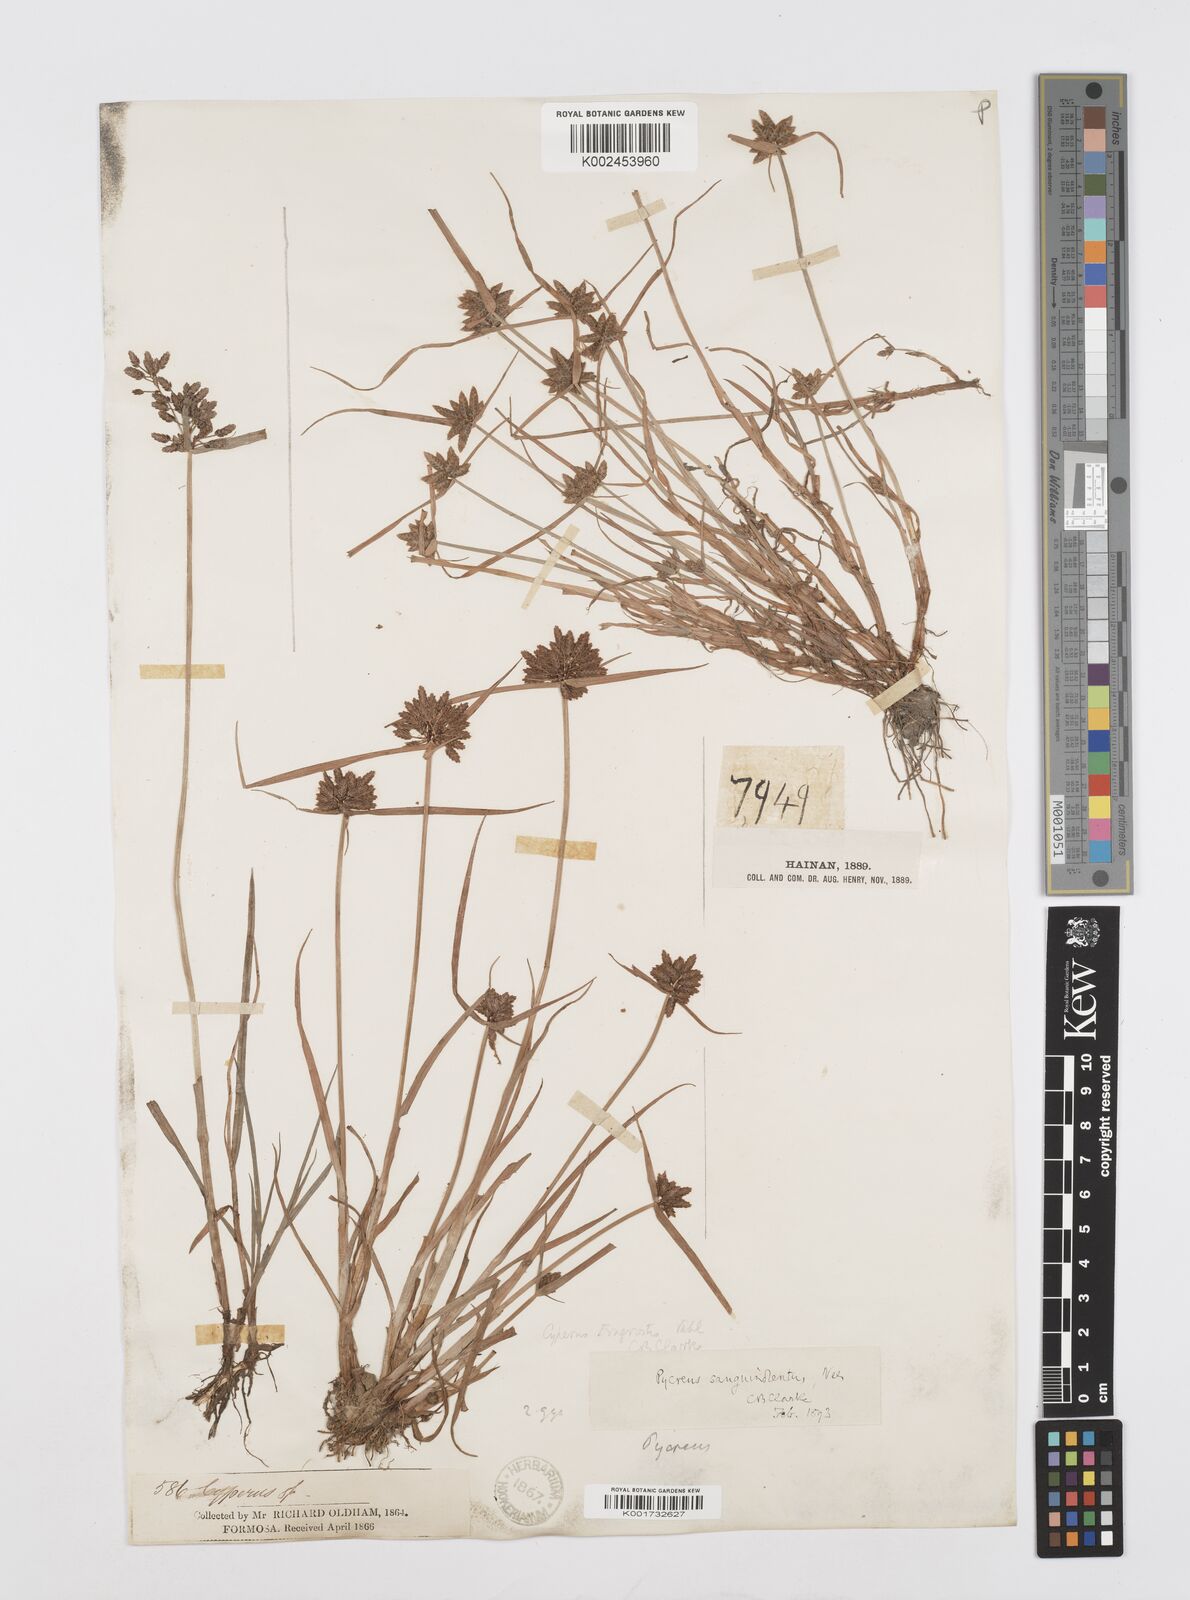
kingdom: Plantae
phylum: Tracheophyta
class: Liliopsida
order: Poales
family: Cyperaceae
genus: Cyperus
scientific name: Cyperus sanguinolentus
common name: Purpleglume flatsedge
